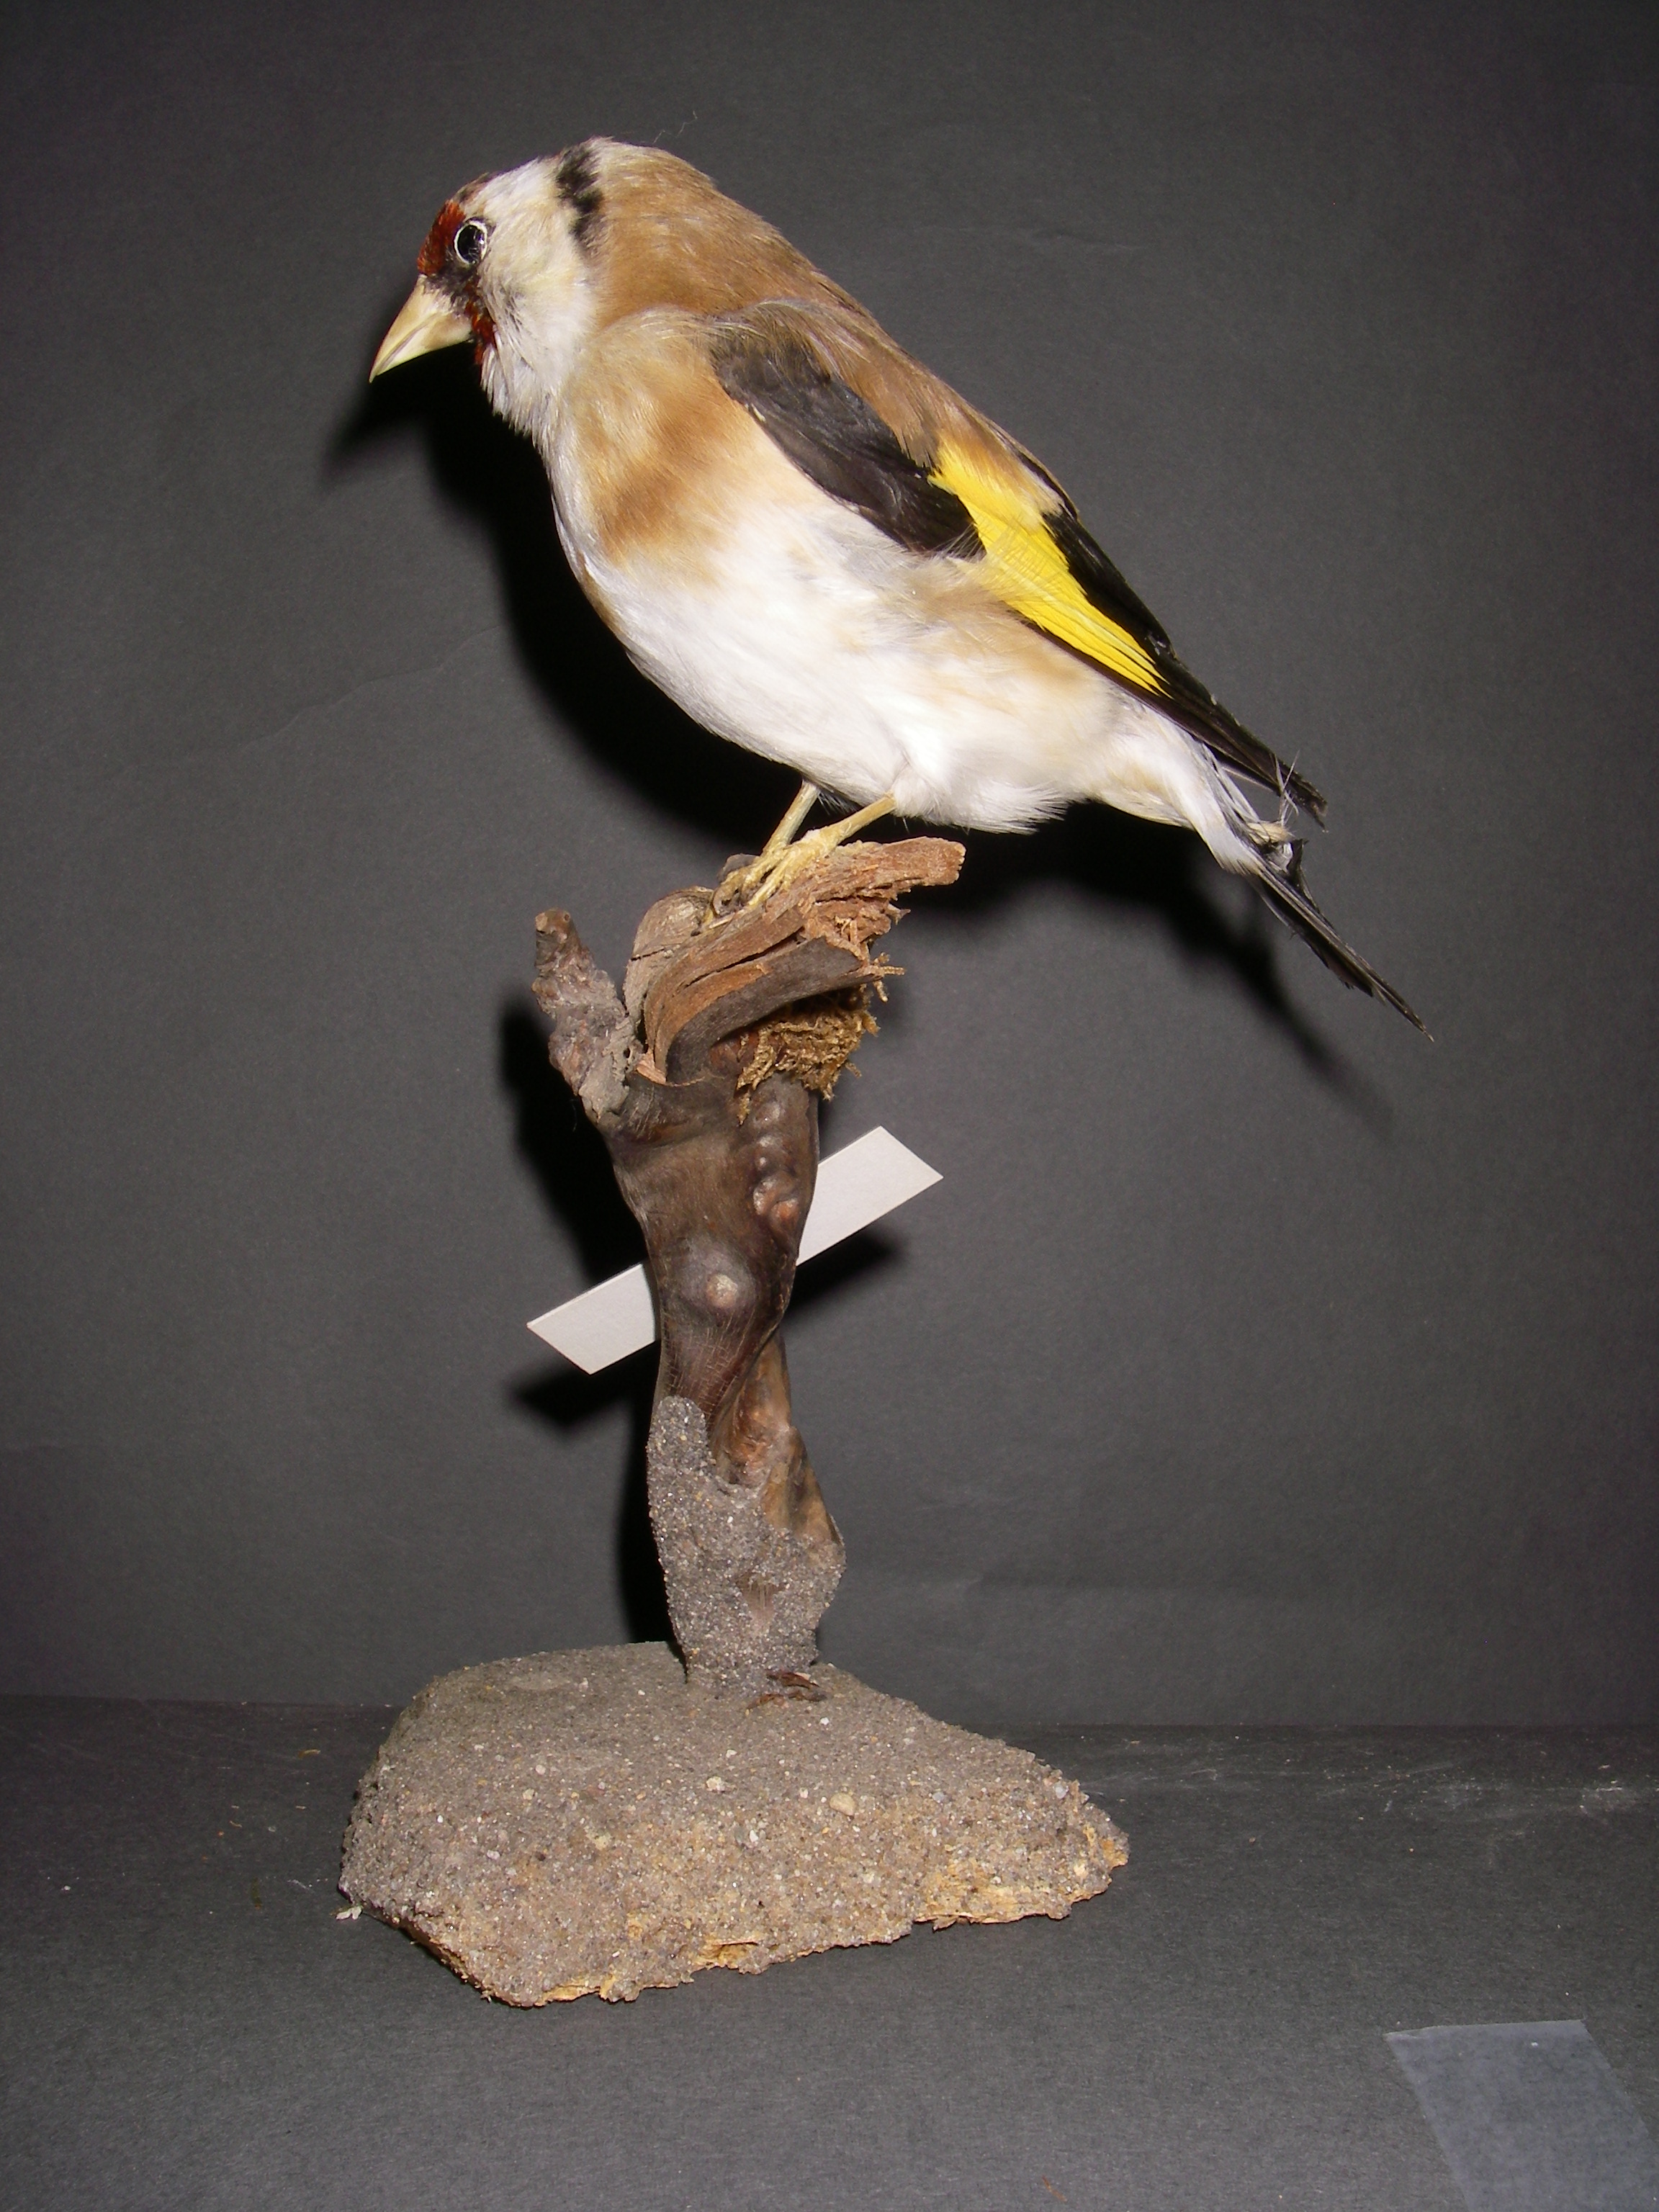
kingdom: Animalia
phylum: Chordata
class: Aves
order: Passeriformes
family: Fringillidae
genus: Carduelis
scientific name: Carduelis carduelis
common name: European goldfinch
